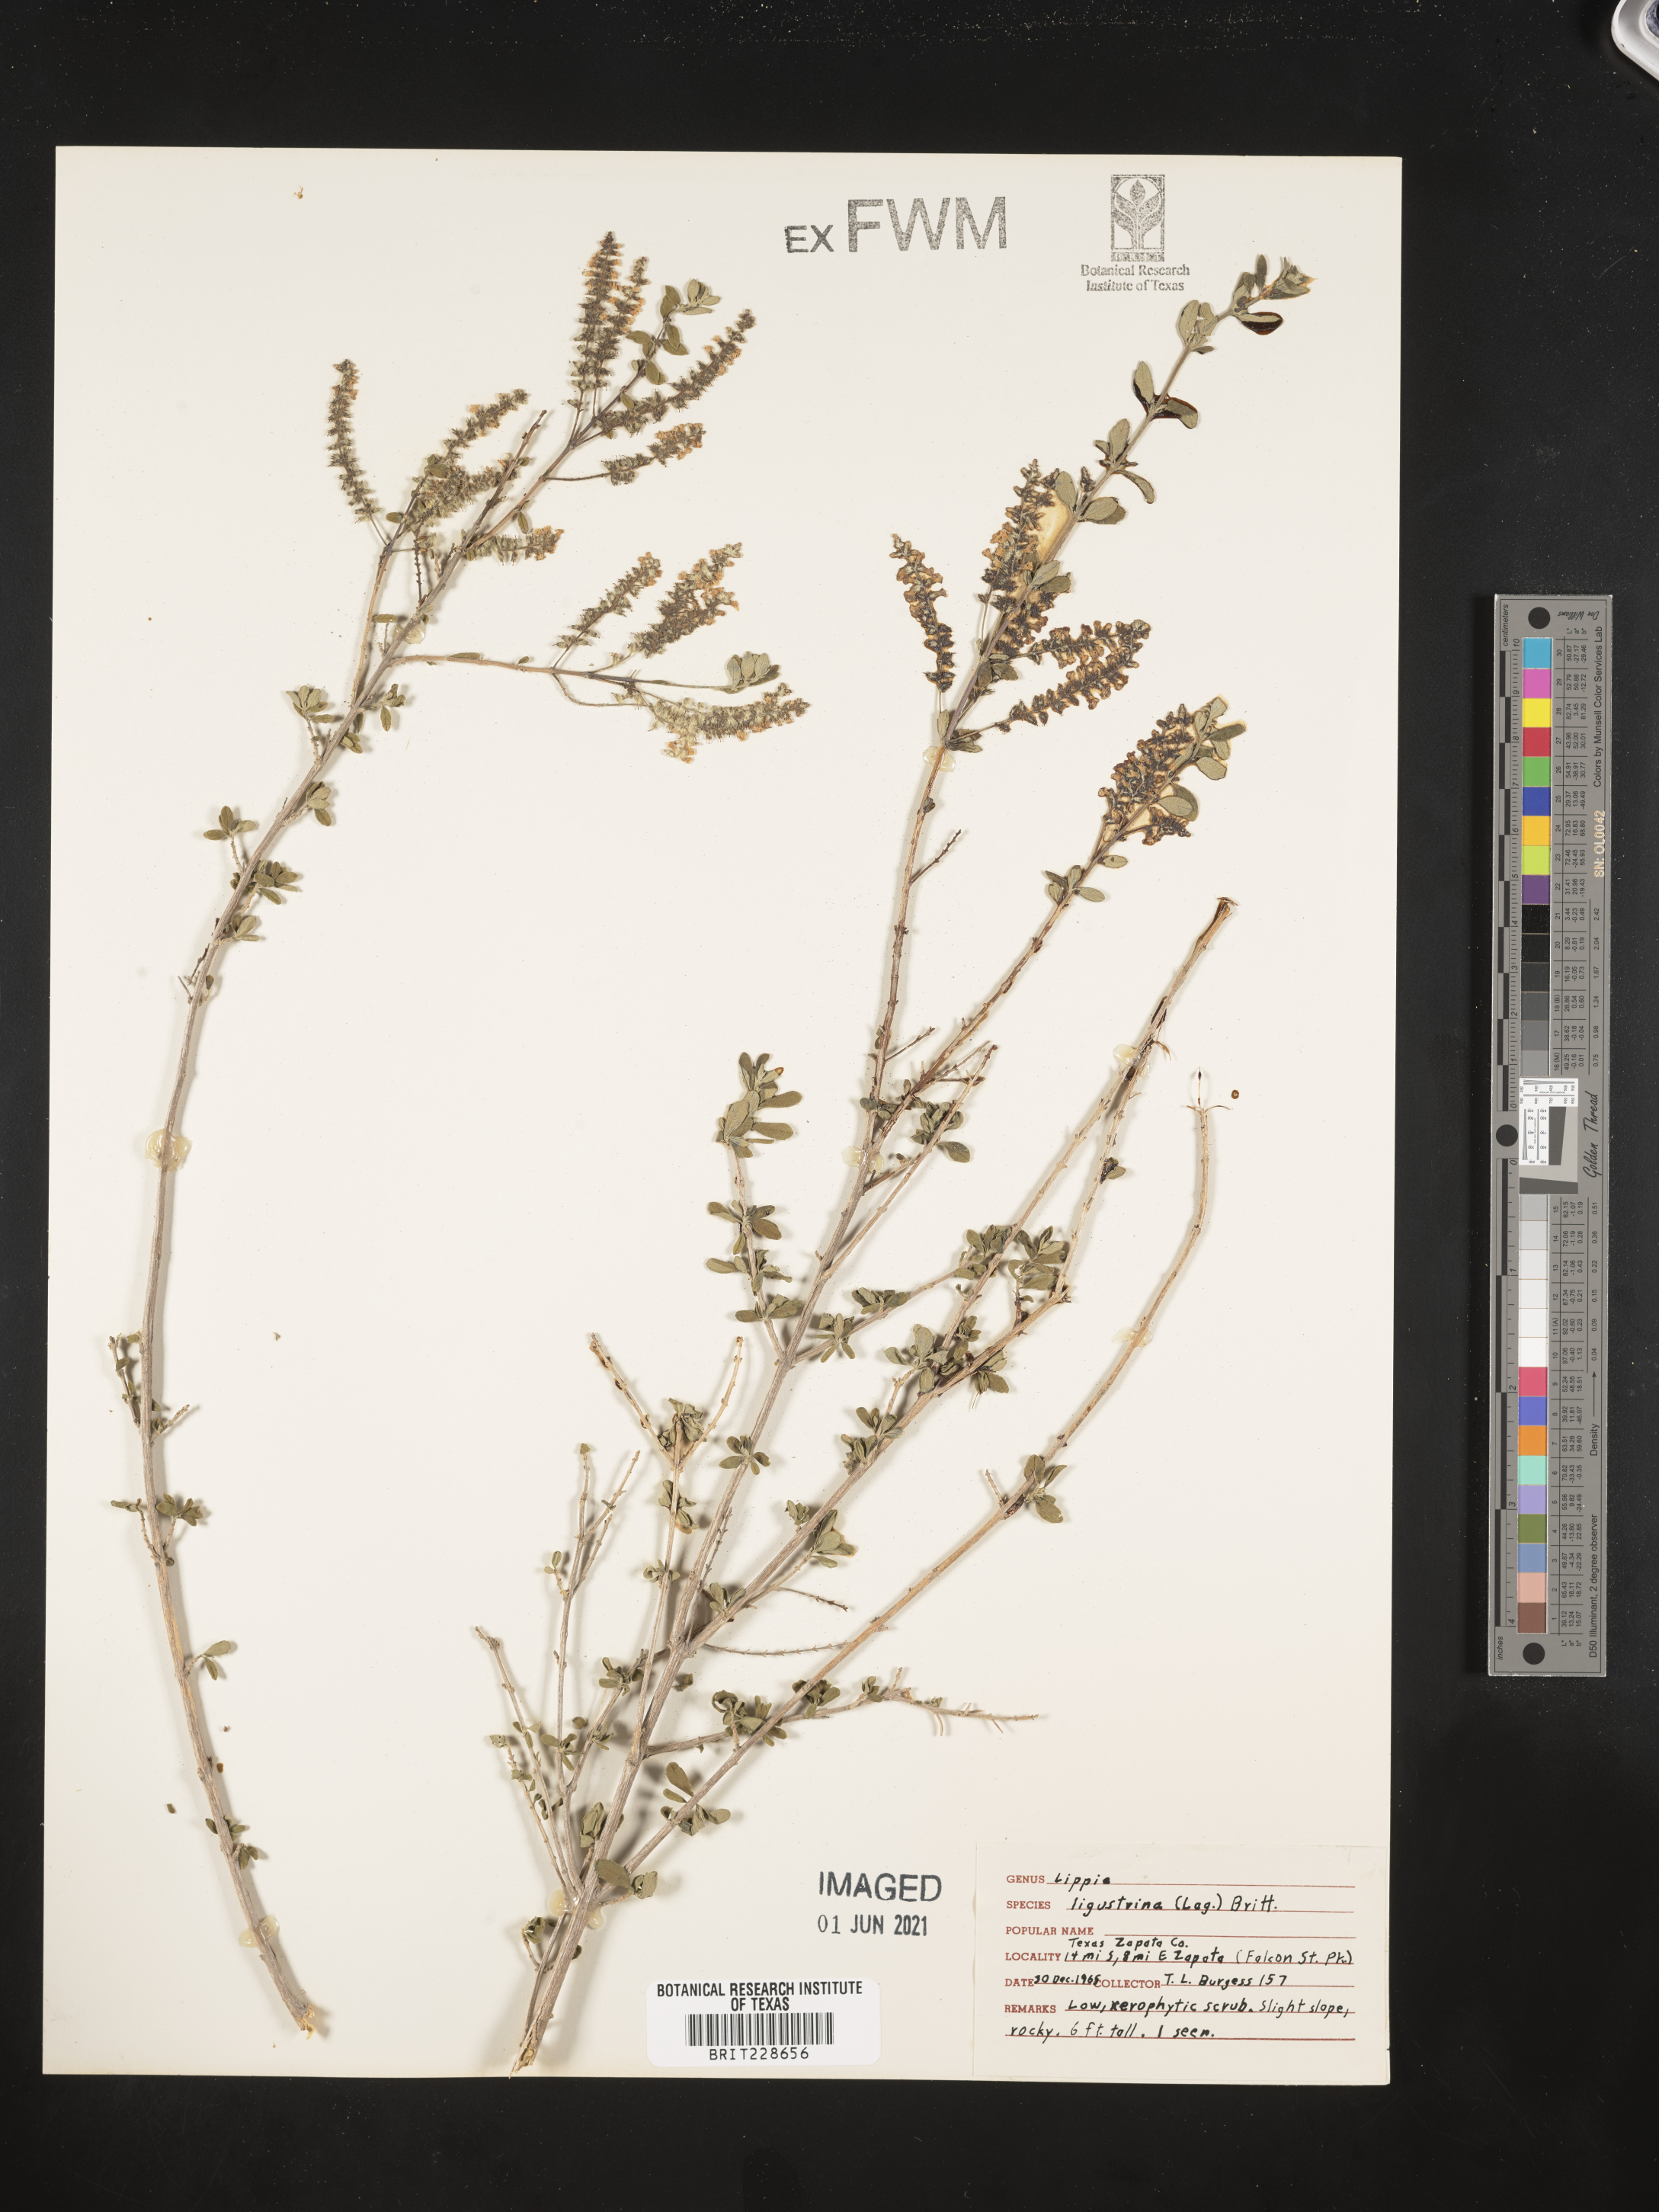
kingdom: Plantae
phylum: Tracheophyta
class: Magnoliopsida
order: Lamiales
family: Verbenaceae
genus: Mulguraea
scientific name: Mulguraea ligustrina
